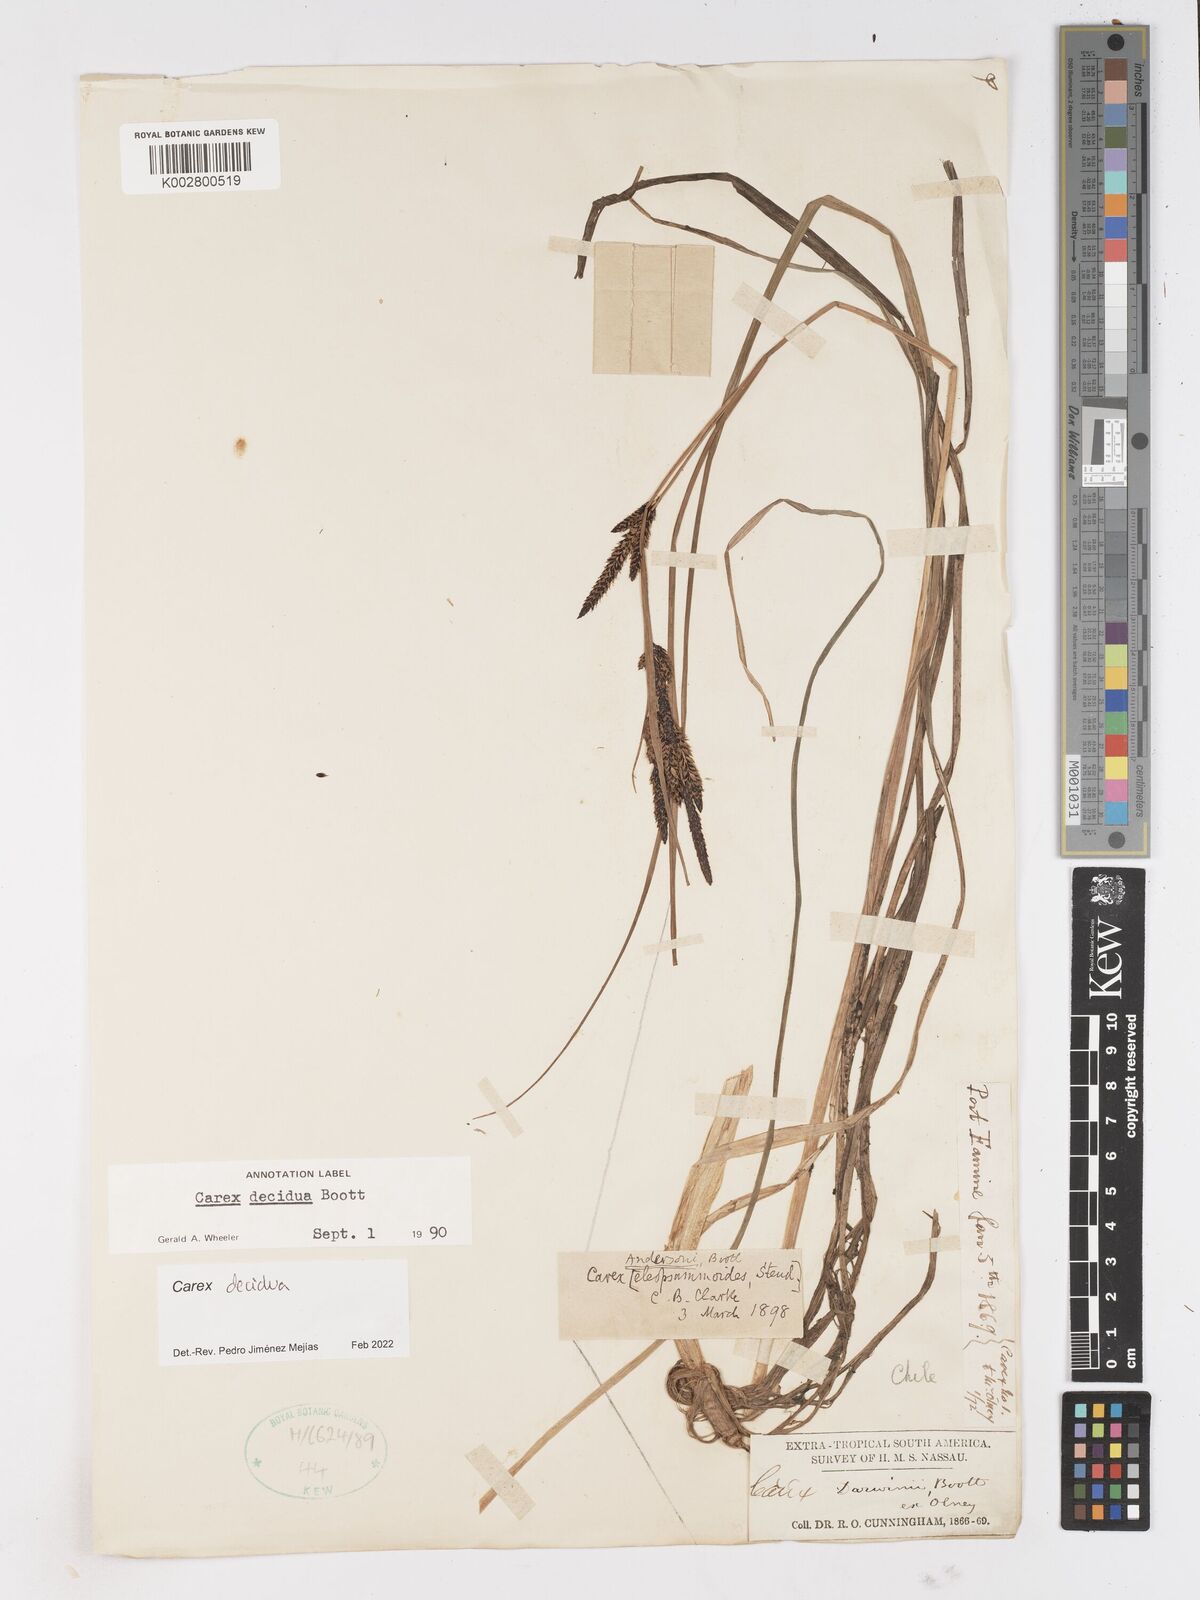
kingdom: Plantae
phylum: Tracheophyta
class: Liliopsida
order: Poales
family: Cyperaceae
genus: Carex
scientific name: Carex decidua
